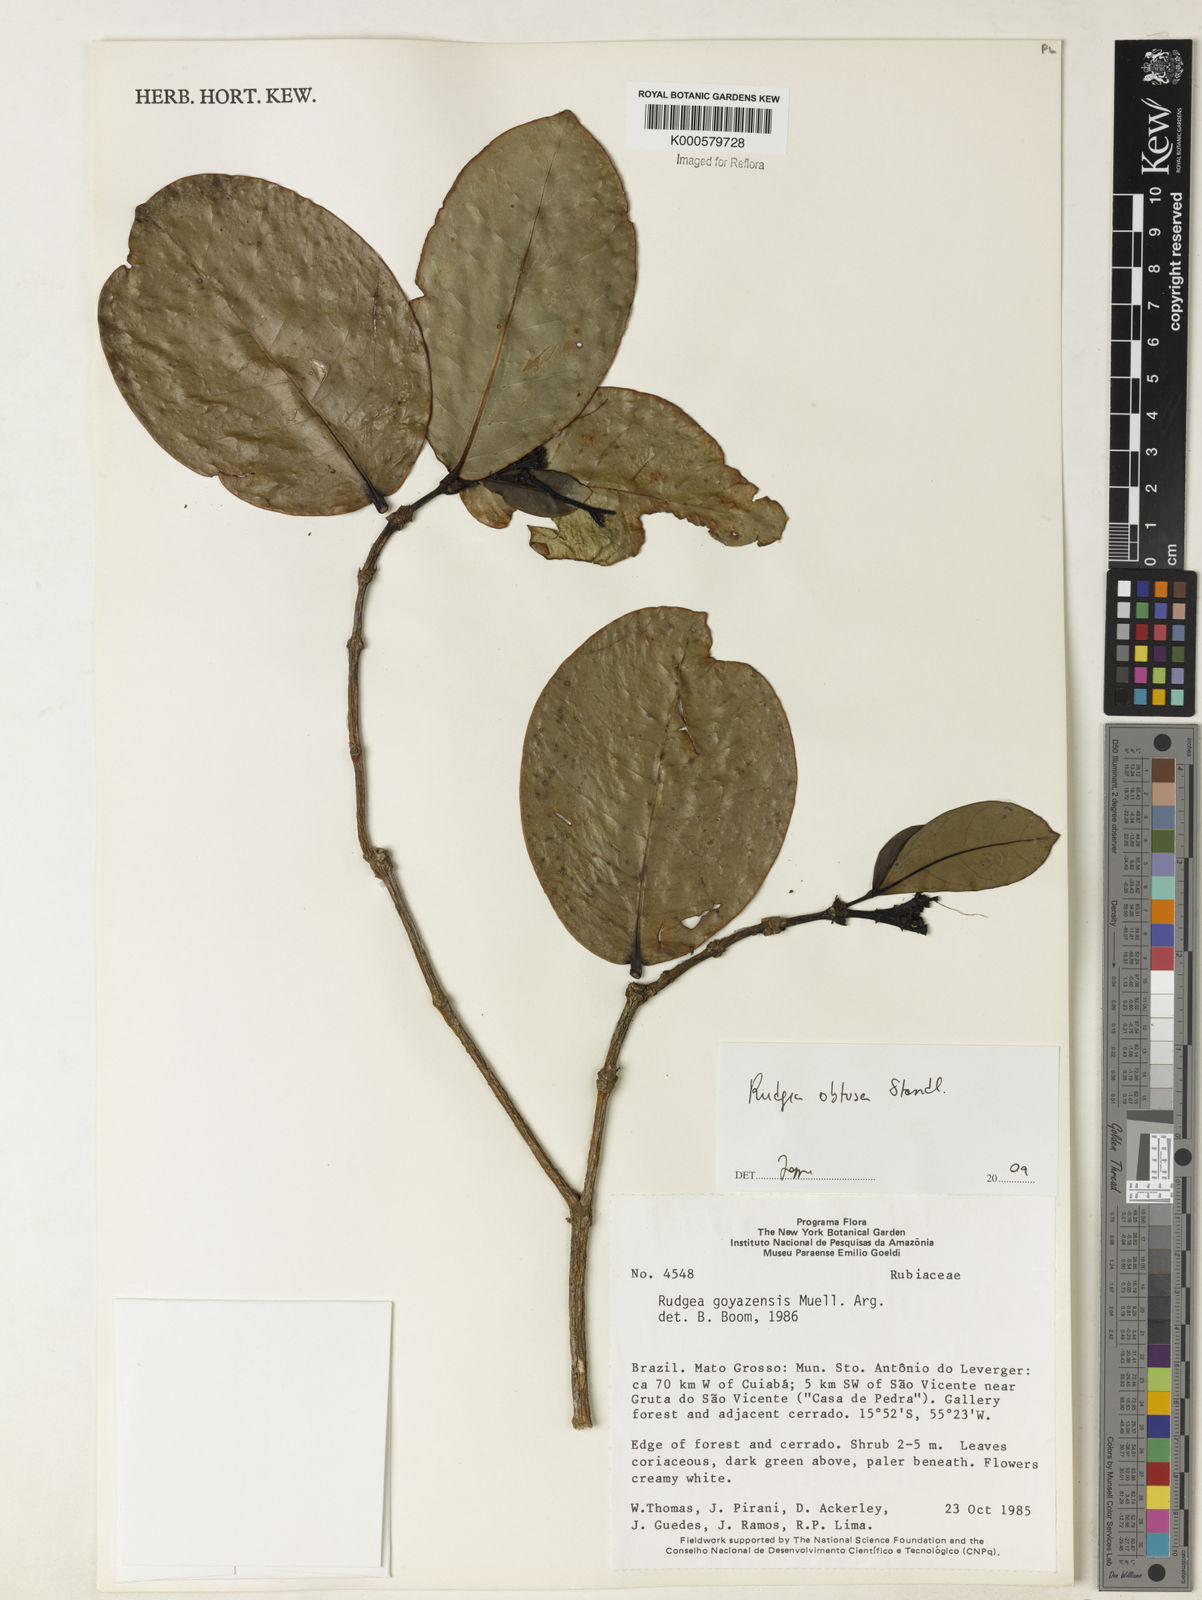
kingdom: Plantae
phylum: Tracheophyta
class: Magnoliopsida
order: Gentianales
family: Rubiaceae
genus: Rudgea
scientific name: Rudgea goyazensis
